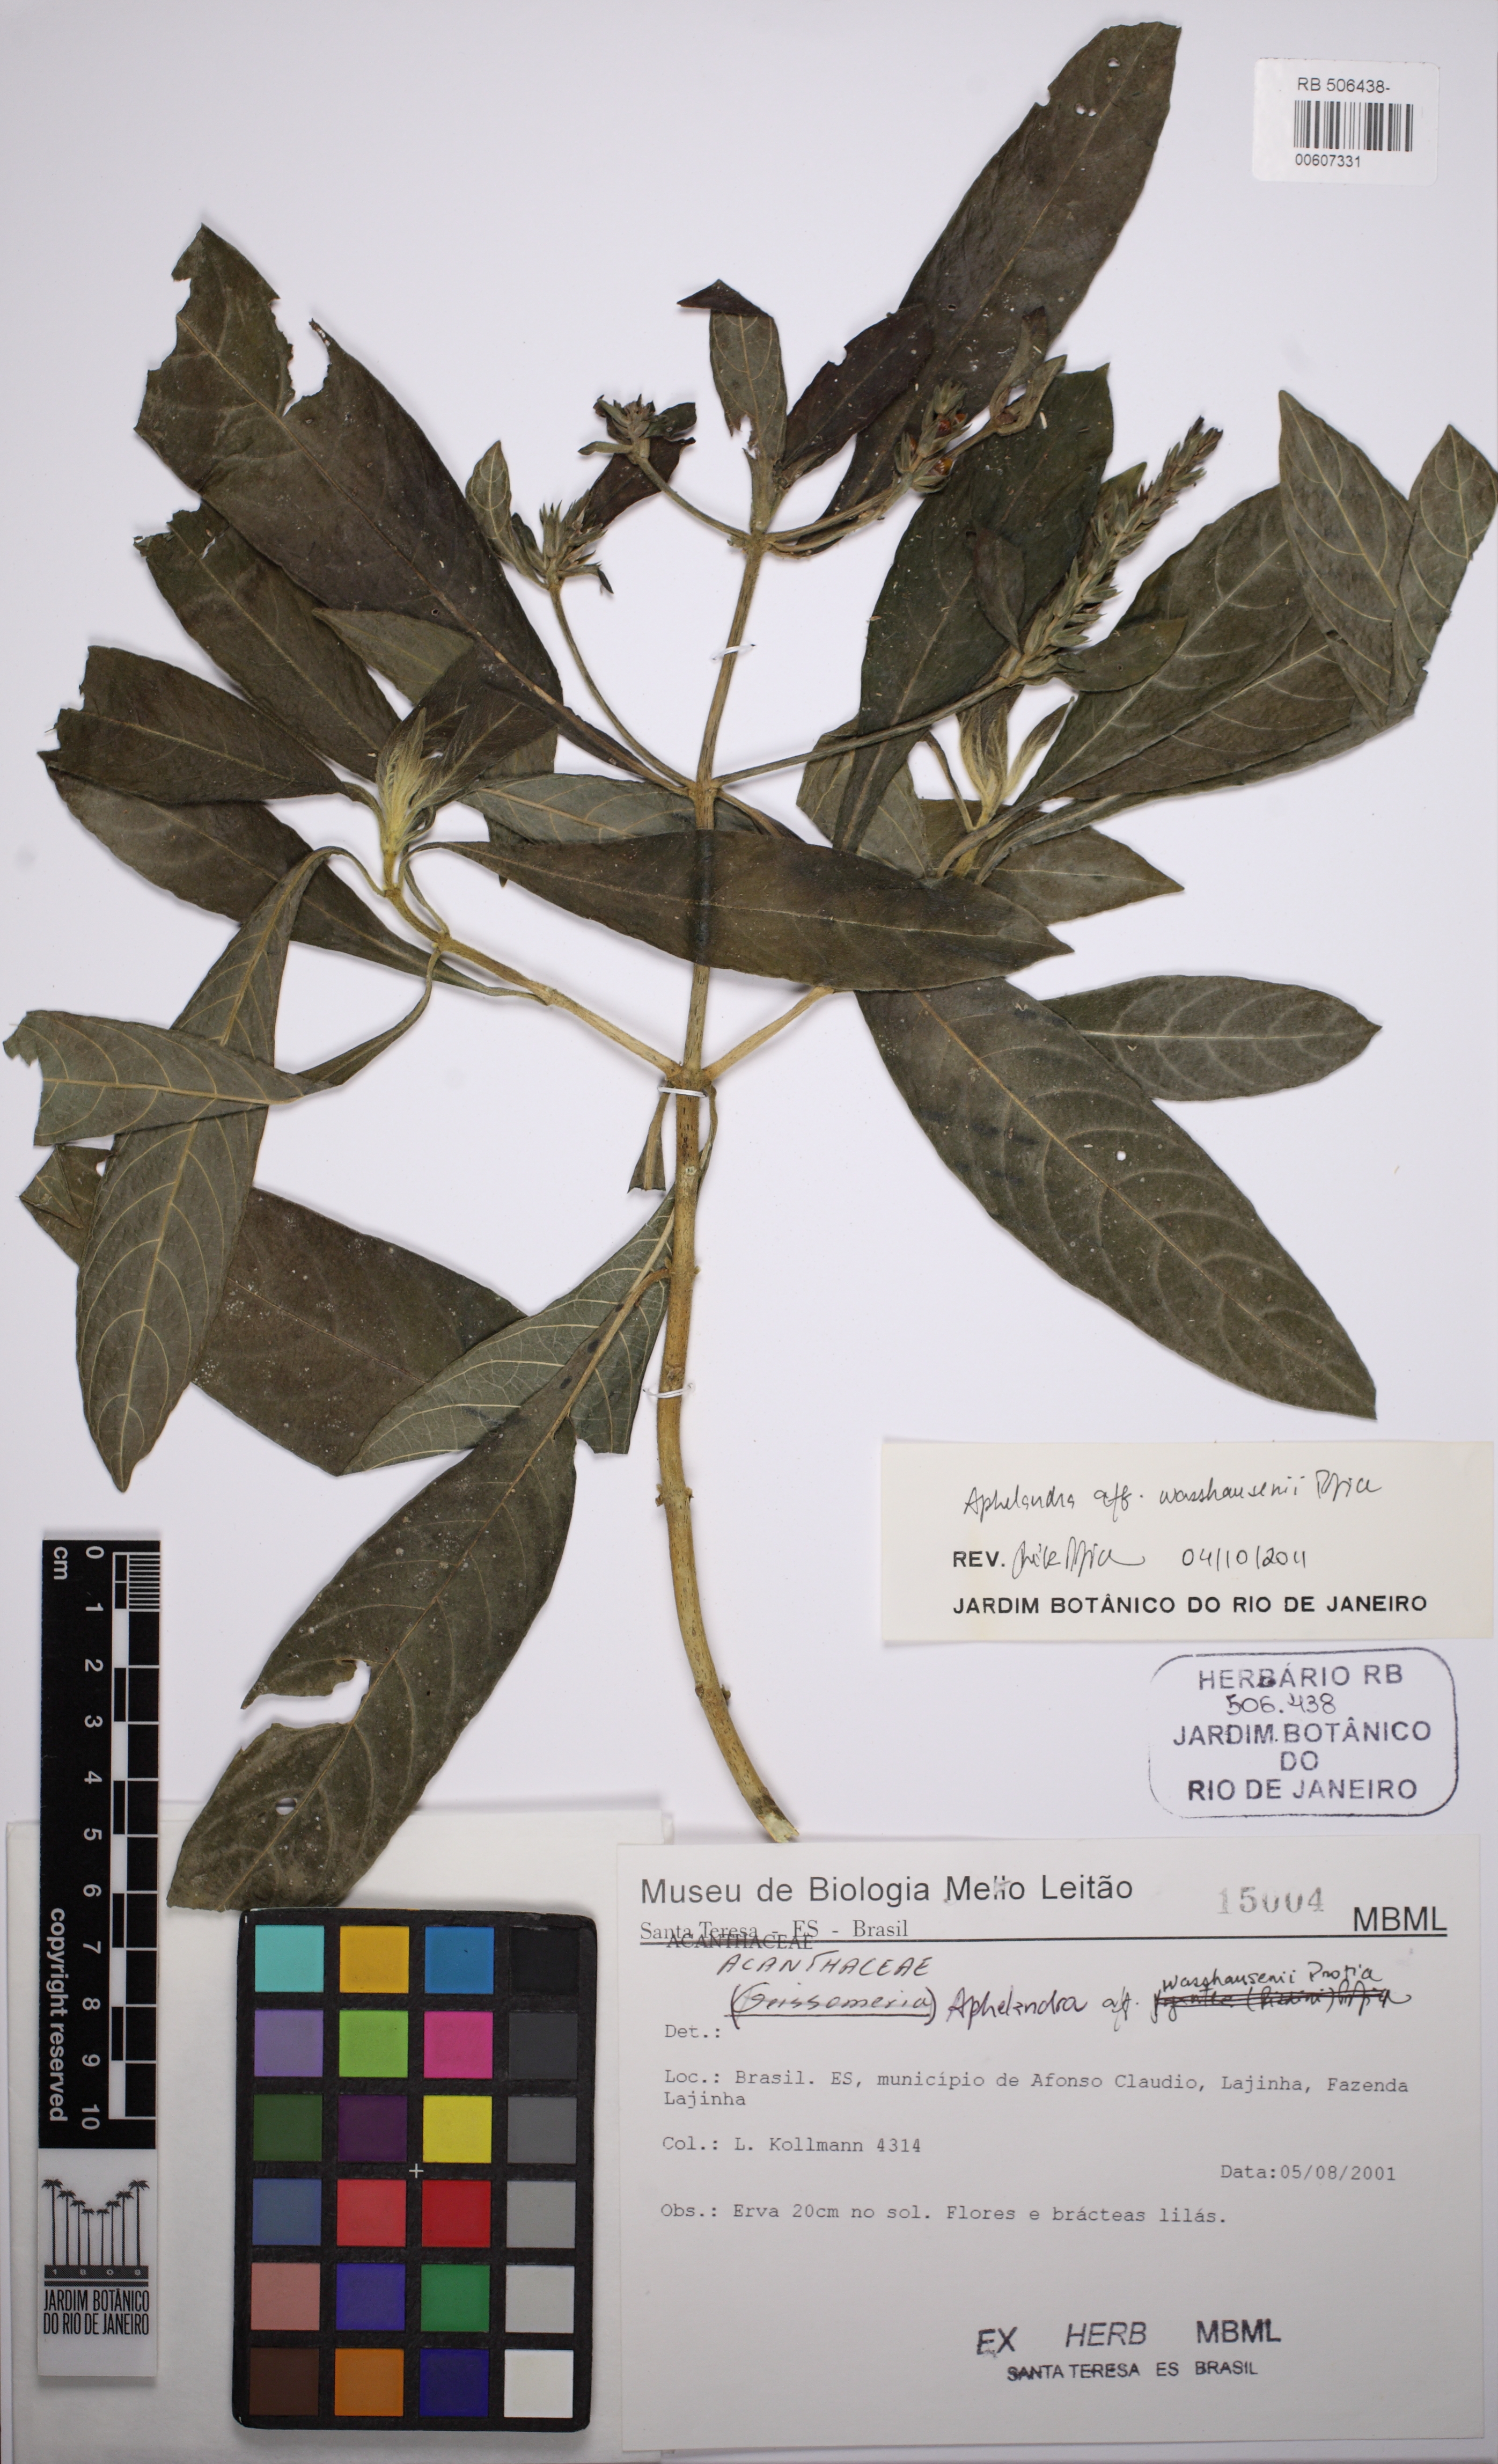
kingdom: Plantae
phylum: Tracheophyta
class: Magnoliopsida
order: Lamiales
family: Acanthaceae
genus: Aphelandra
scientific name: Aphelandra wasshausenii
